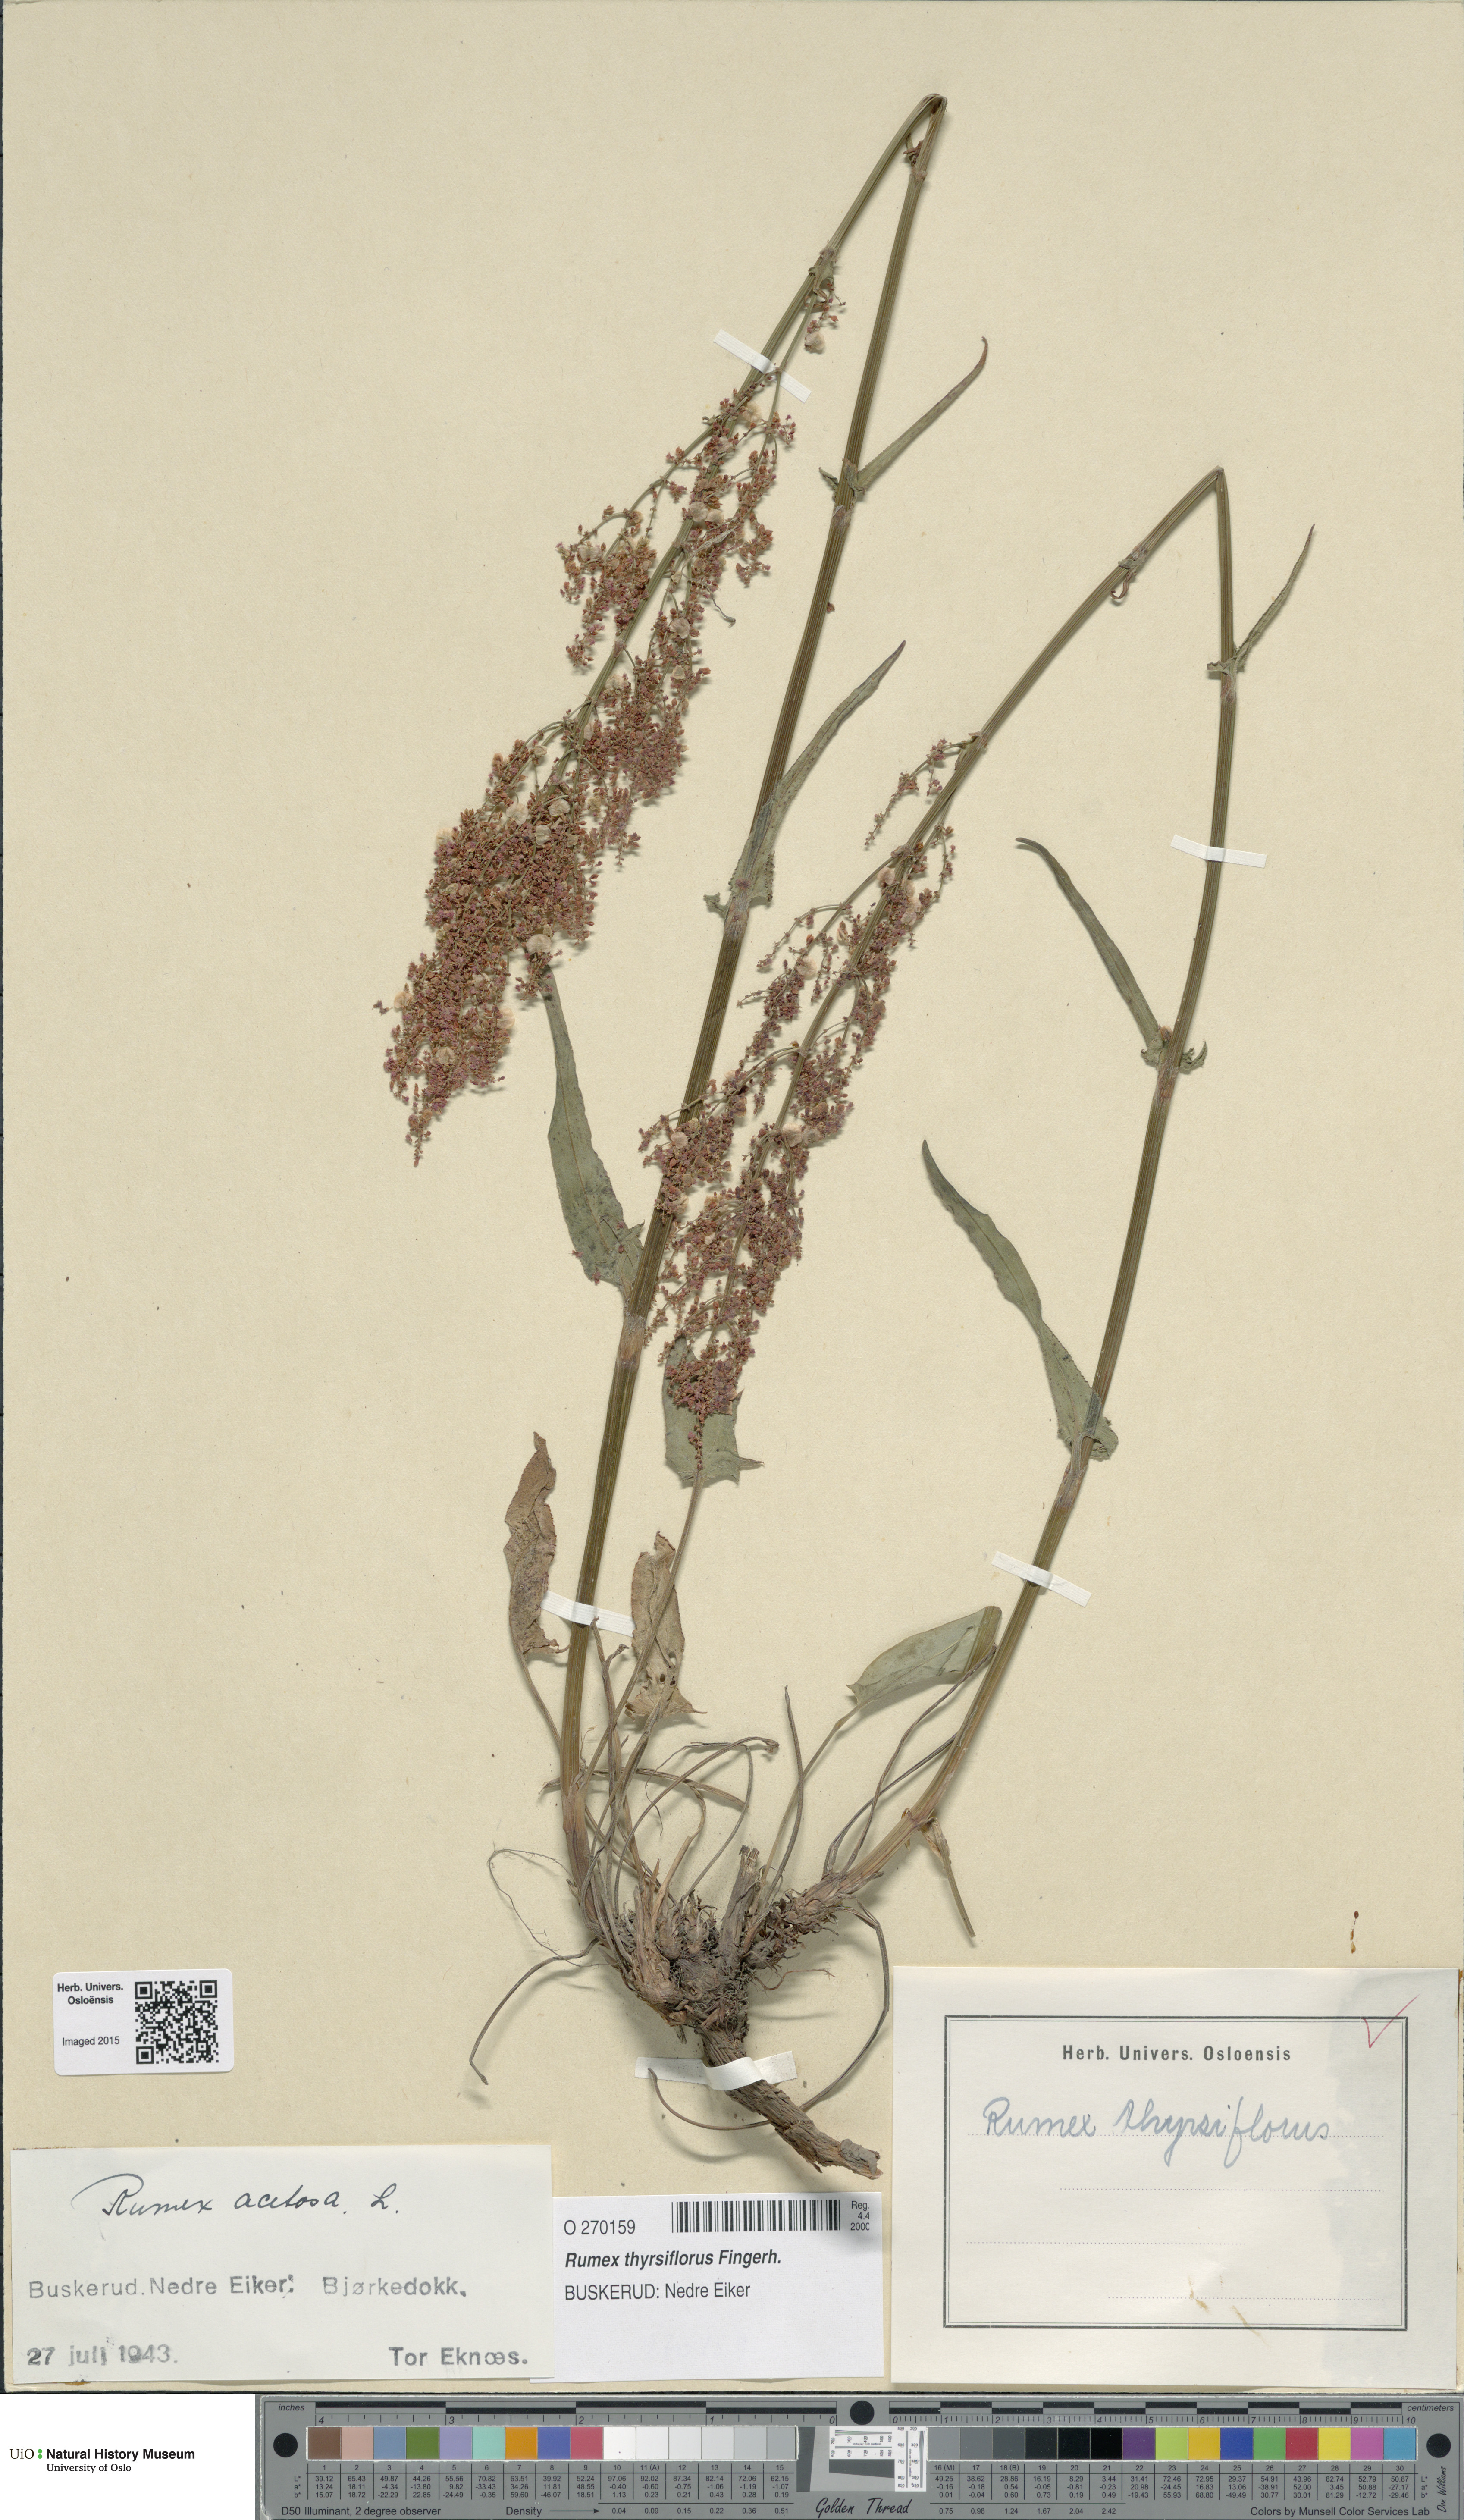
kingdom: Plantae
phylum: Tracheophyta
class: Magnoliopsida
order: Caryophyllales
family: Polygonaceae
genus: Rumex
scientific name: Rumex thyrsiflorus
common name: Garden sorrel
